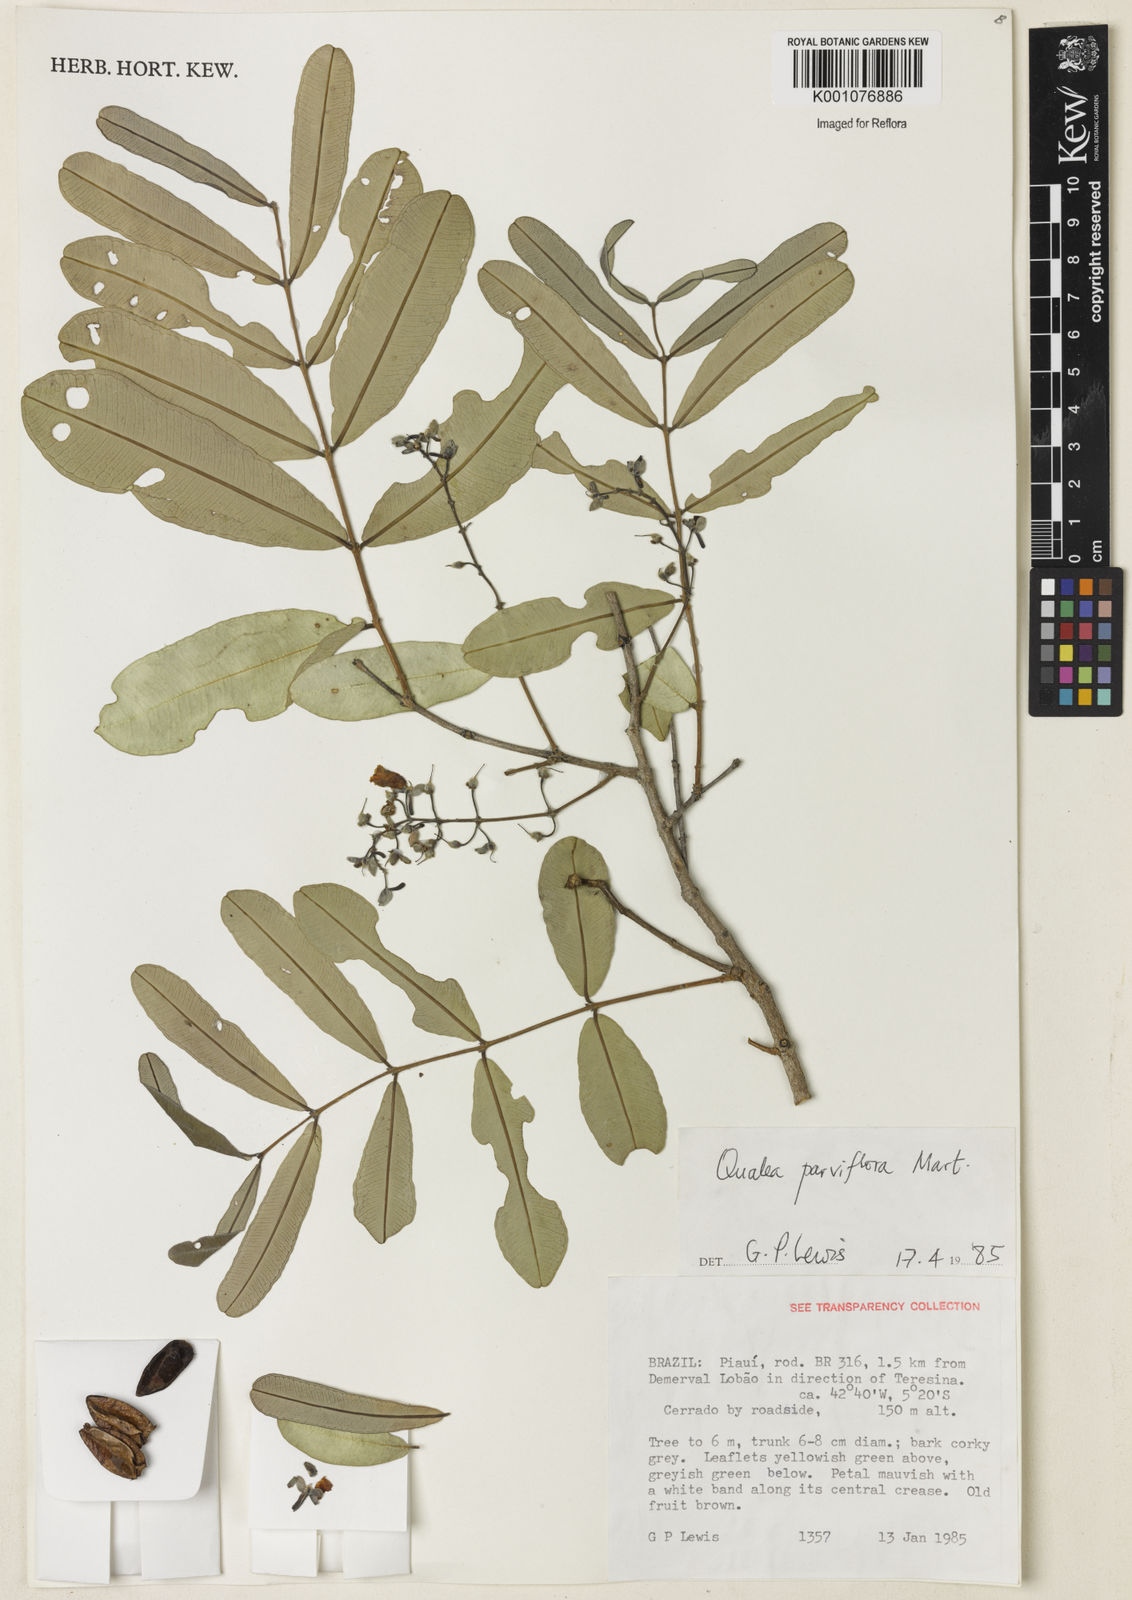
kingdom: Plantae
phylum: Tracheophyta
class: Magnoliopsida
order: Myrtales
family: Vochysiaceae
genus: Qualea
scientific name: Qualea parviflora
